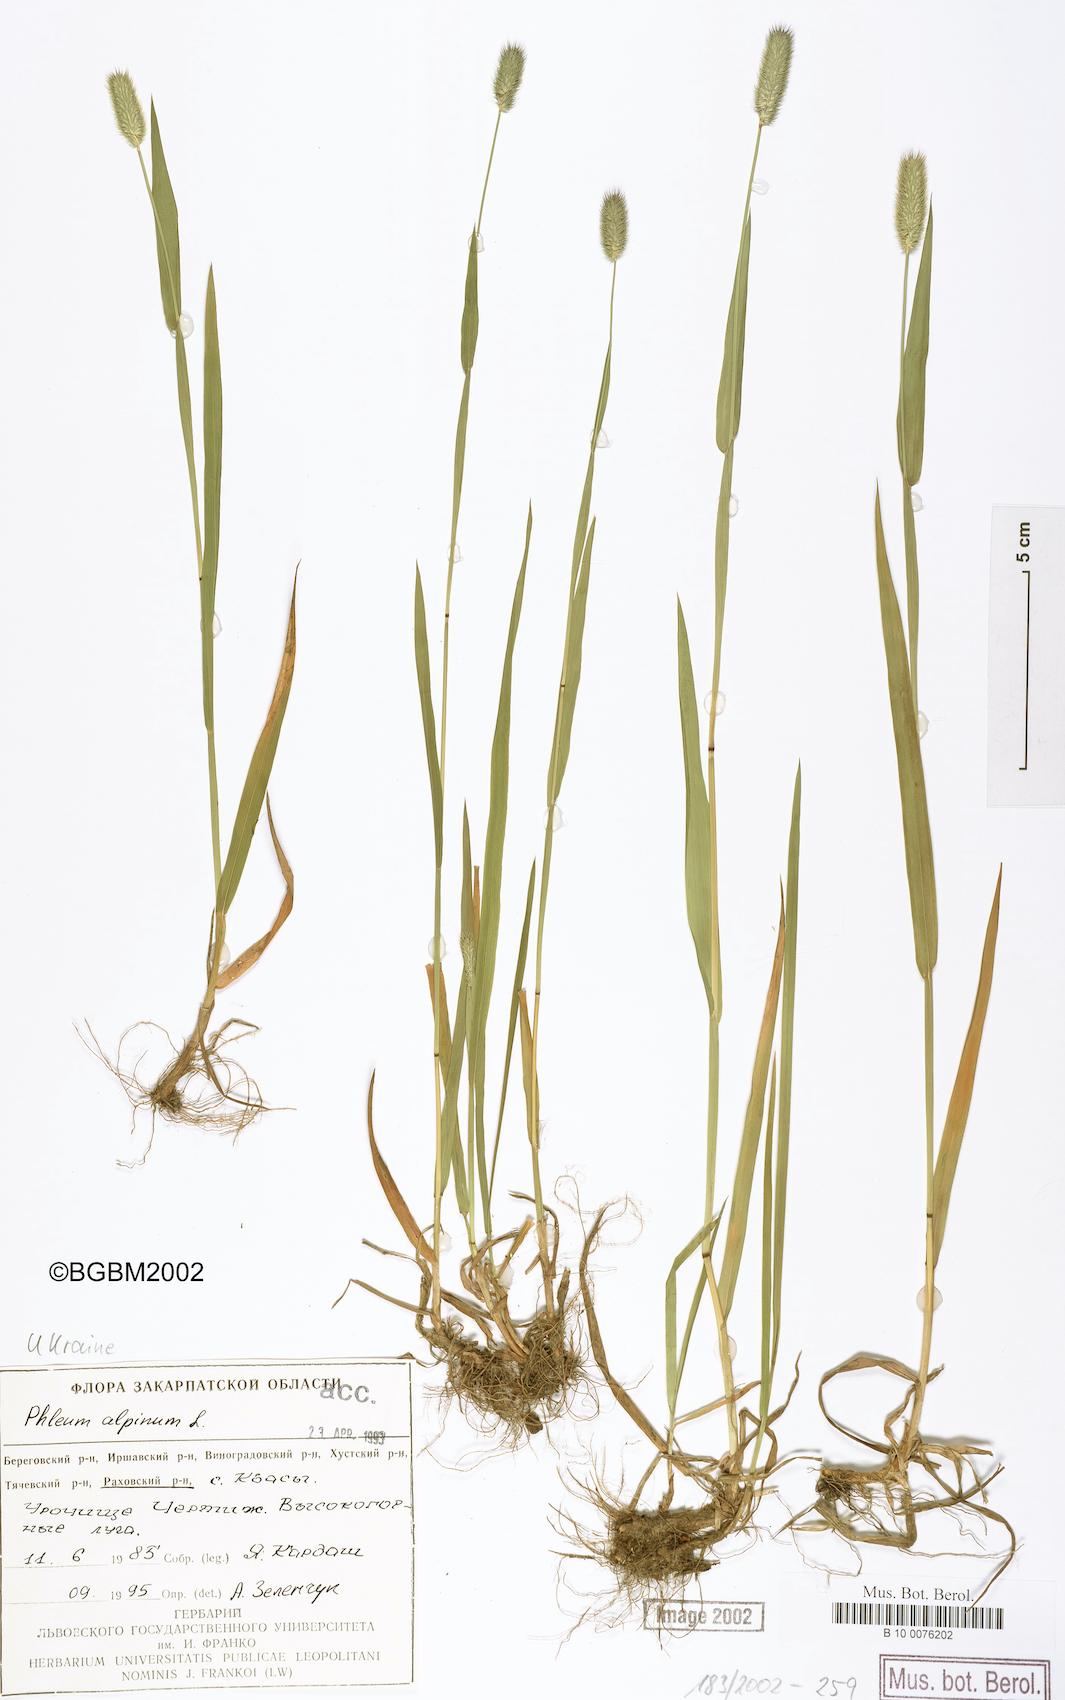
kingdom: Plantae
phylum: Tracheophyta
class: Liliopsida
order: Poales
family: Poaceae
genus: Phleum
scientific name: Phleum alpinum
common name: Alpine cat's-tail
